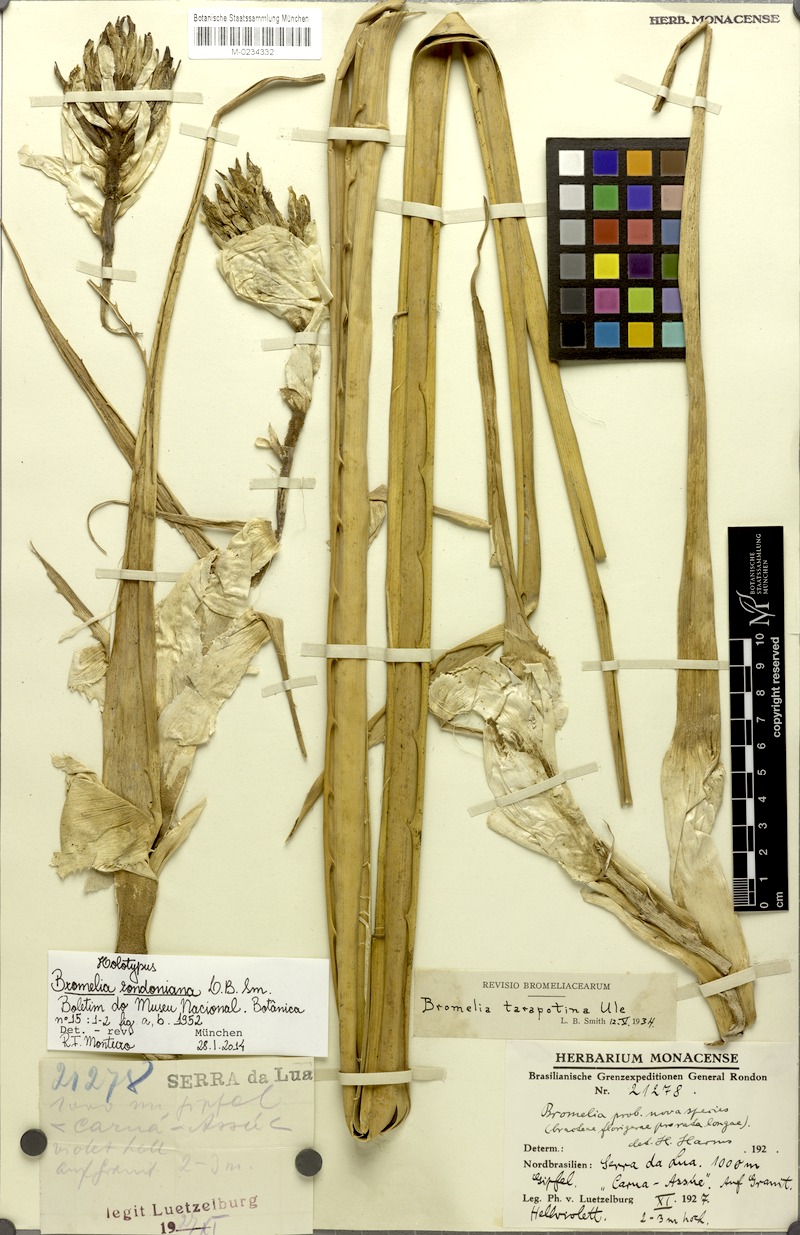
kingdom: Plantae
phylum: Tracheophyta
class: Liliopsida
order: Poales
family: Bromeliaceae
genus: Bromelia
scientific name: Bromelia rondoniana
